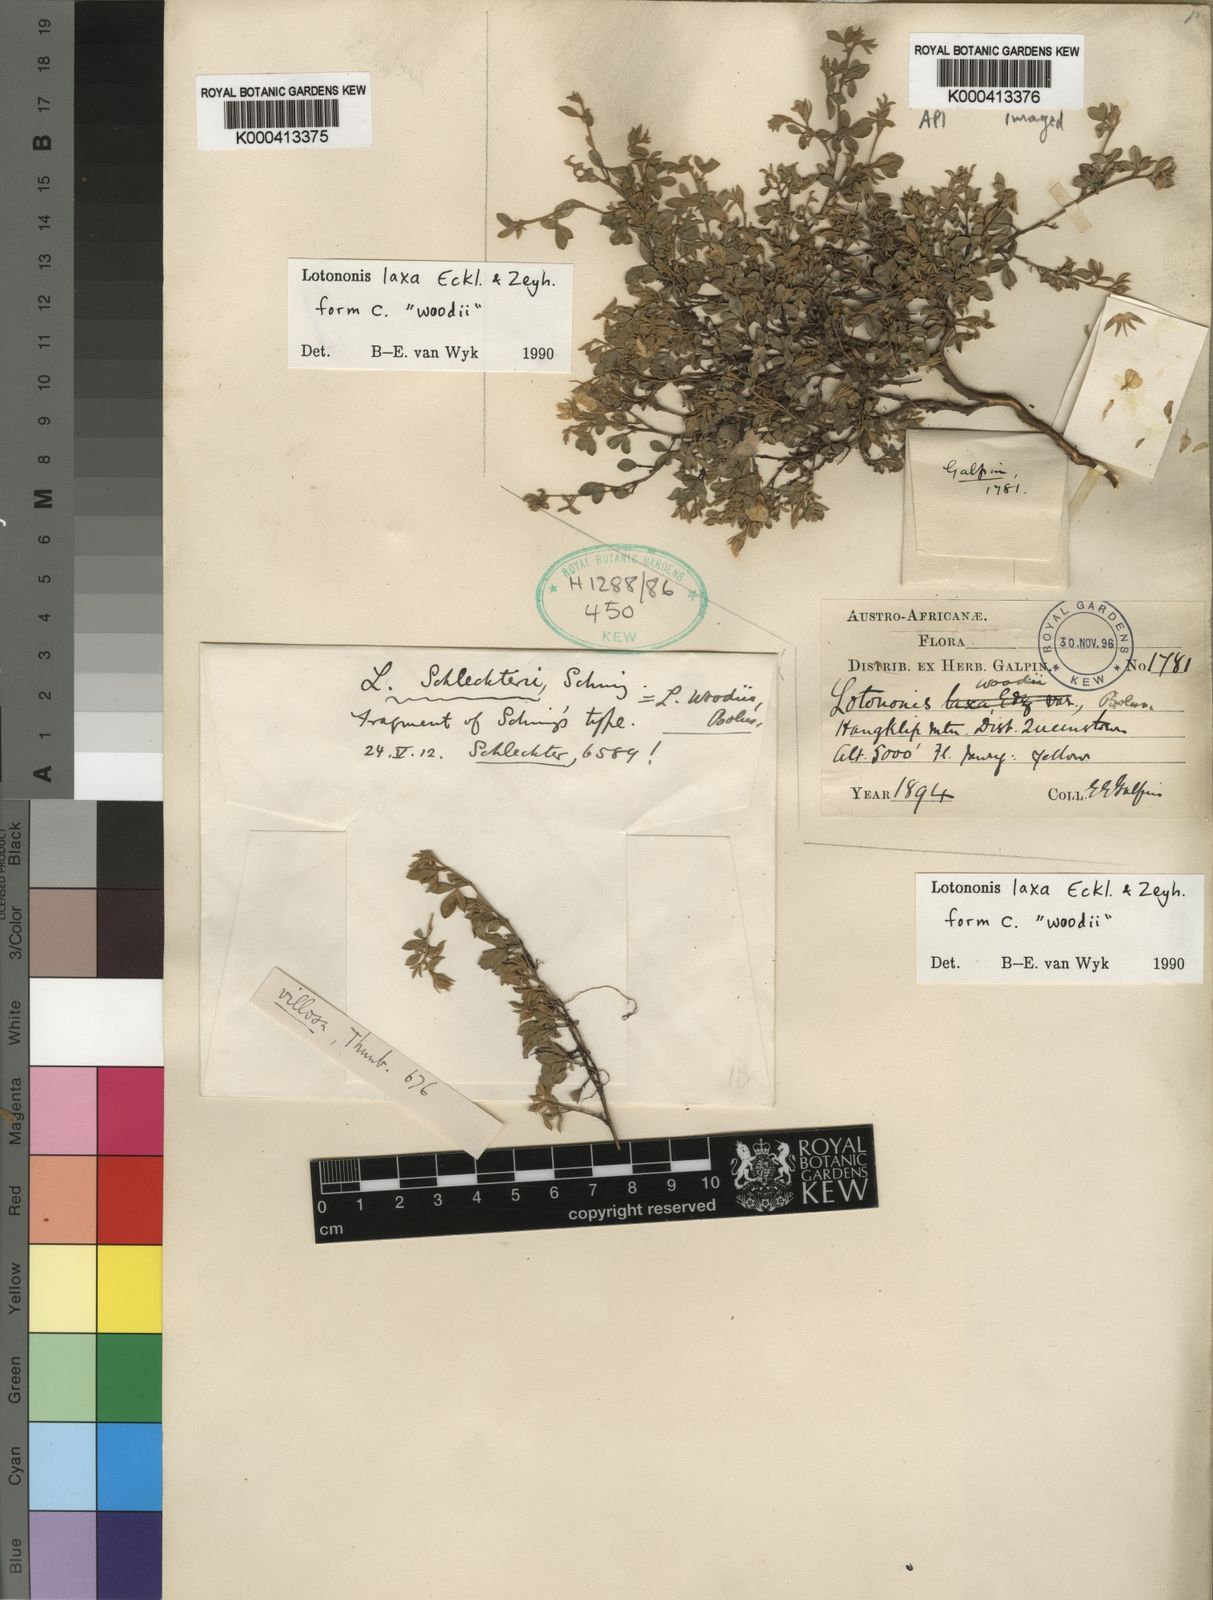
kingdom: Plantae
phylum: Tracheophyta
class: Magnoliopsida
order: Fabales
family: Fabaceae
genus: Lotononis
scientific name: Lotononis laxa
